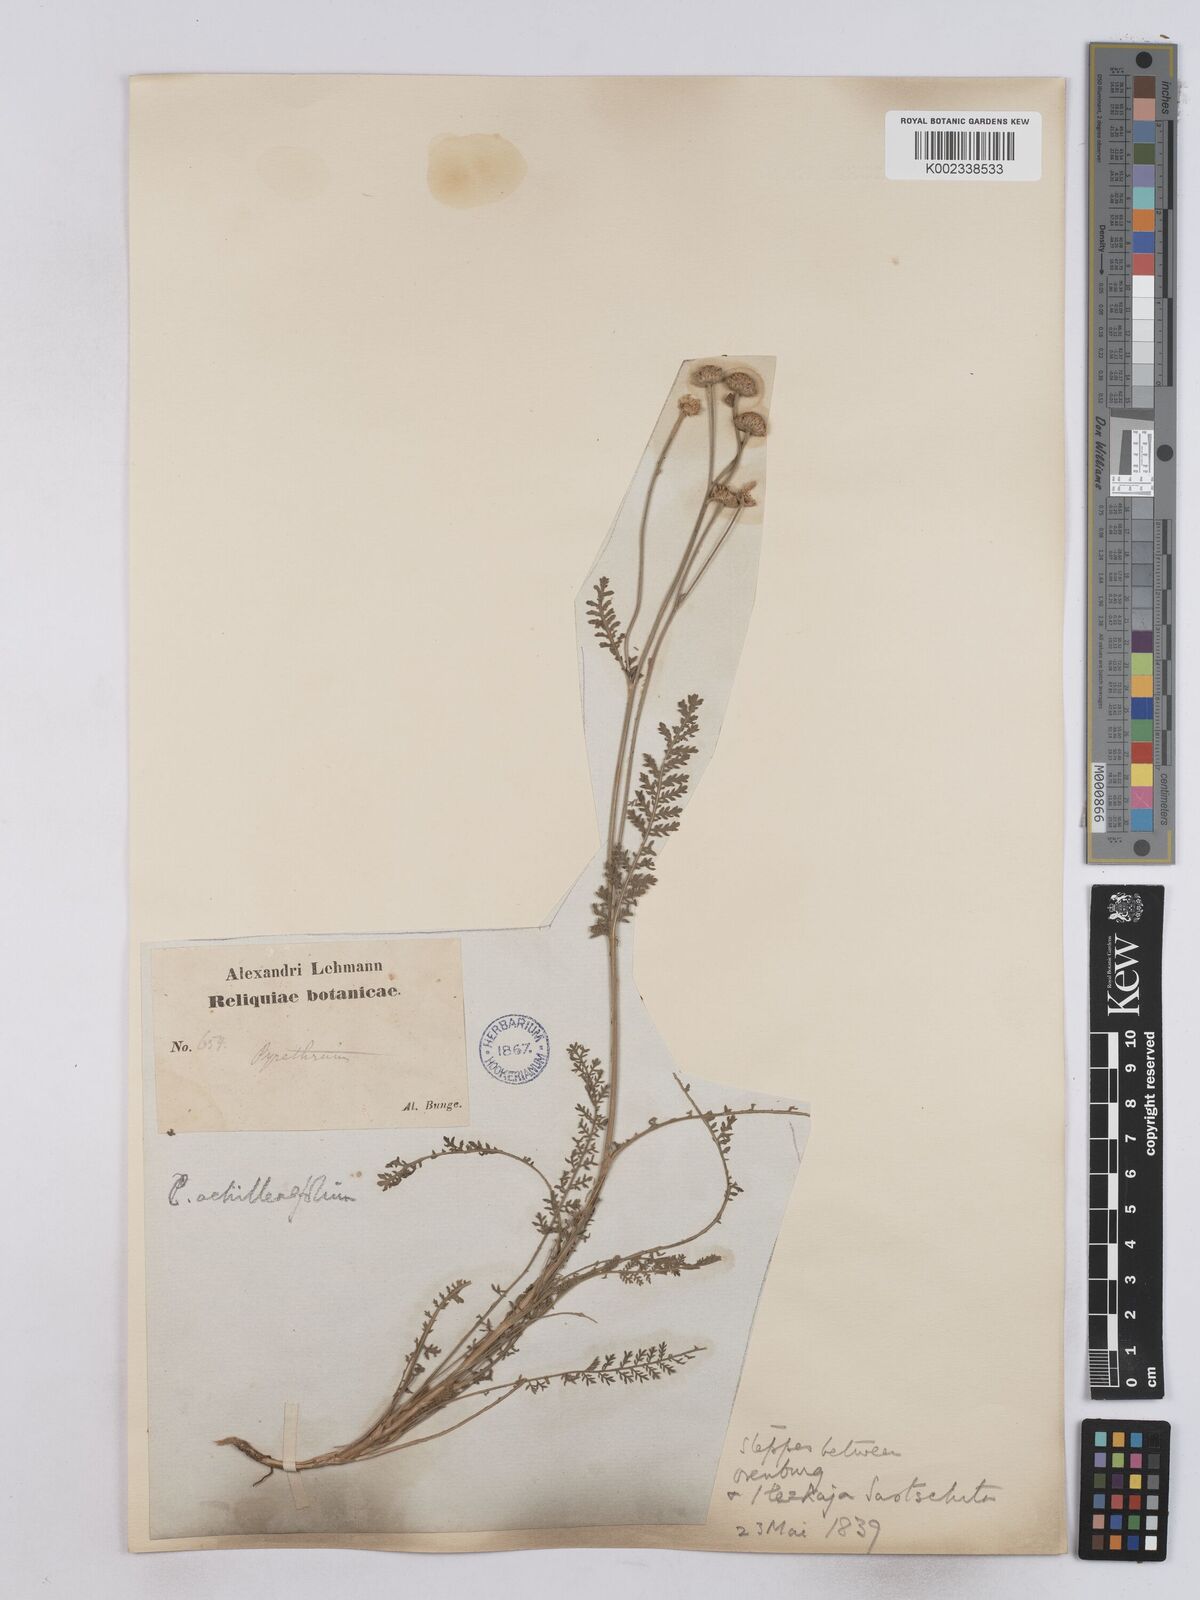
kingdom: Plantae
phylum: Tracheophyta
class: Magnoliopsida
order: Asterales
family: Asteraceae
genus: Tanacetum
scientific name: Tanacetum achilleifolium
